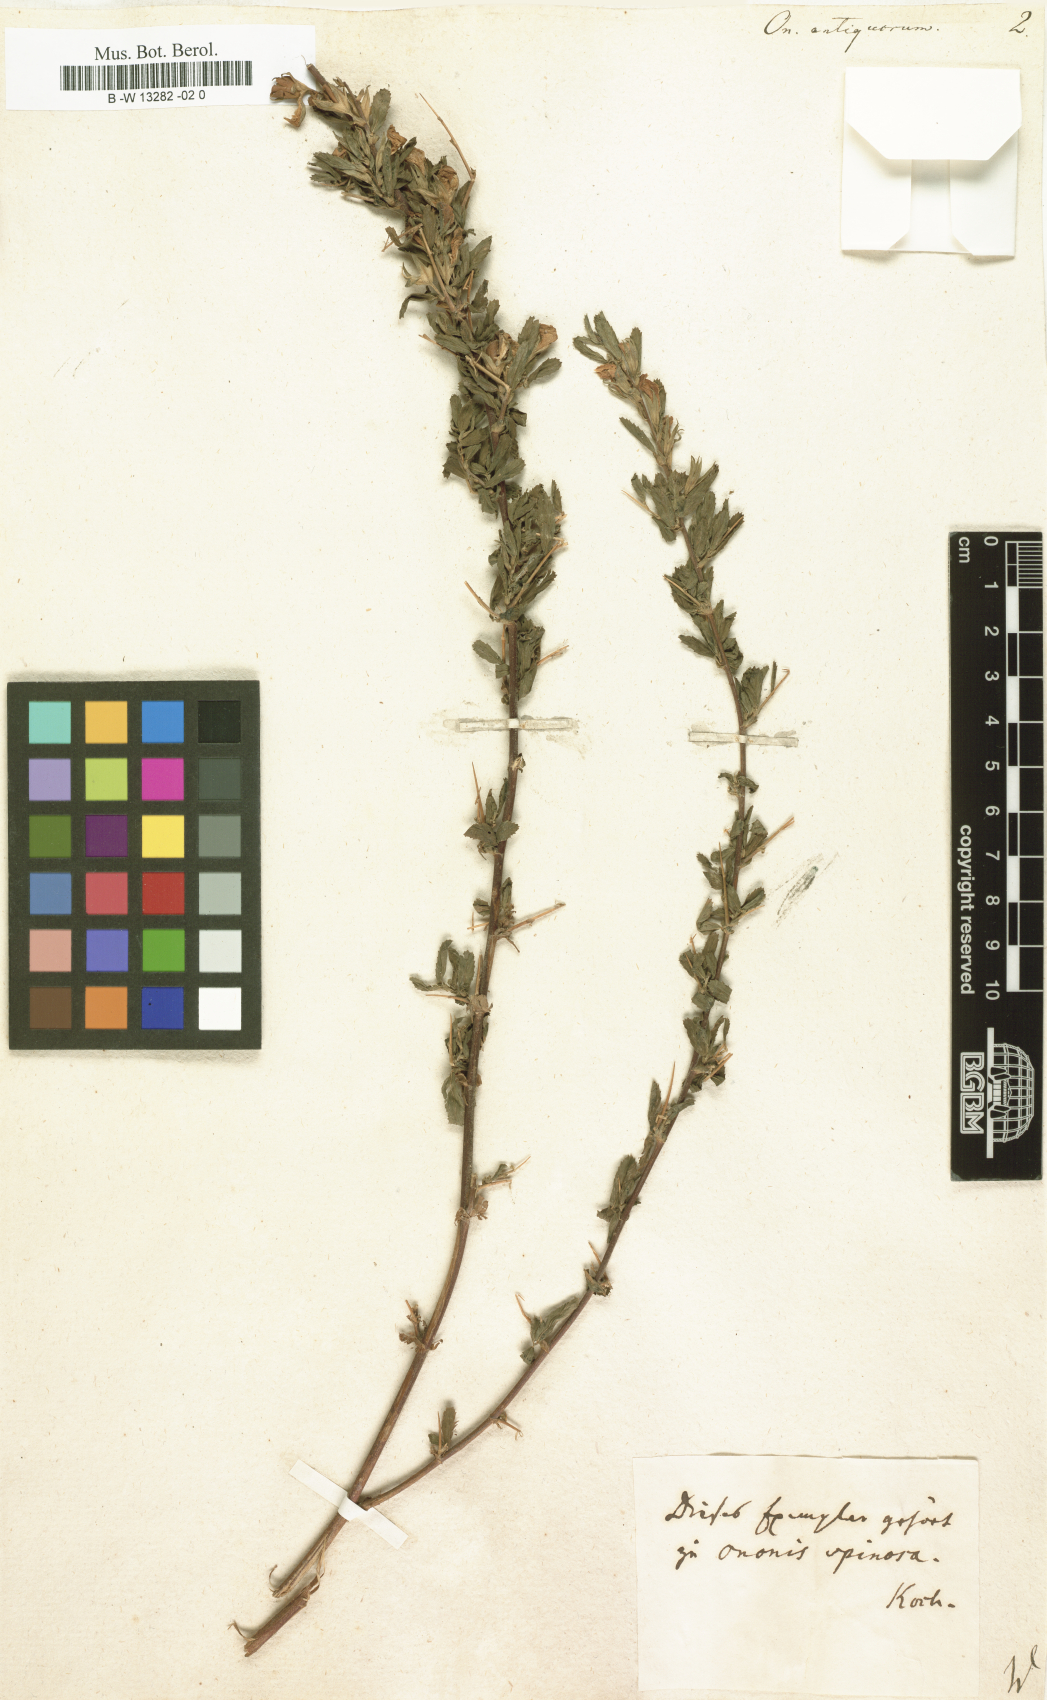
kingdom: Plantae
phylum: Tracheophyta
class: Magnoliopsida
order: Fabales
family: Fabaceae
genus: Ononis
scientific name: Ononis antiquorum
